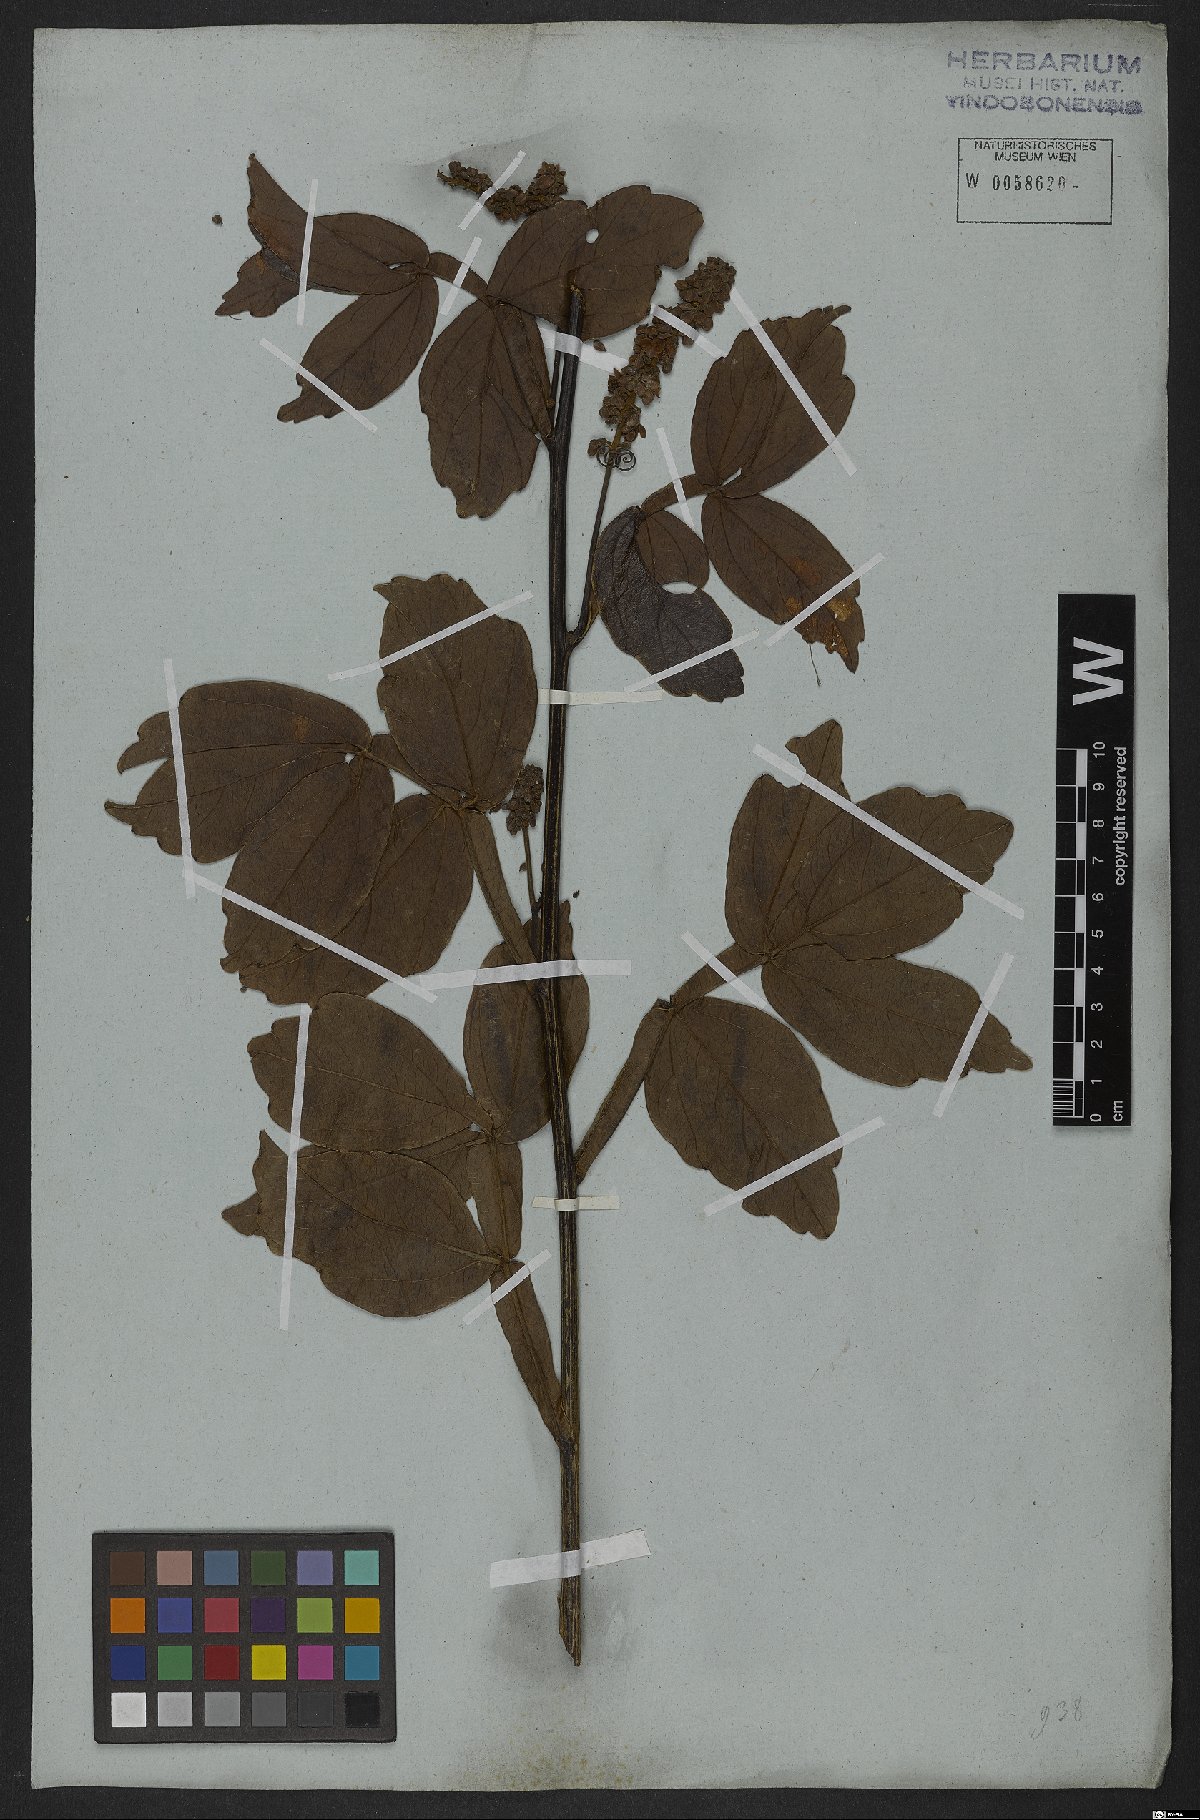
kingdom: Plantae
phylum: Tracheophyta
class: Magnoliopsida
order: Sapindales
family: Sapindaceae
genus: Serjania
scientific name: Serjania erecta
